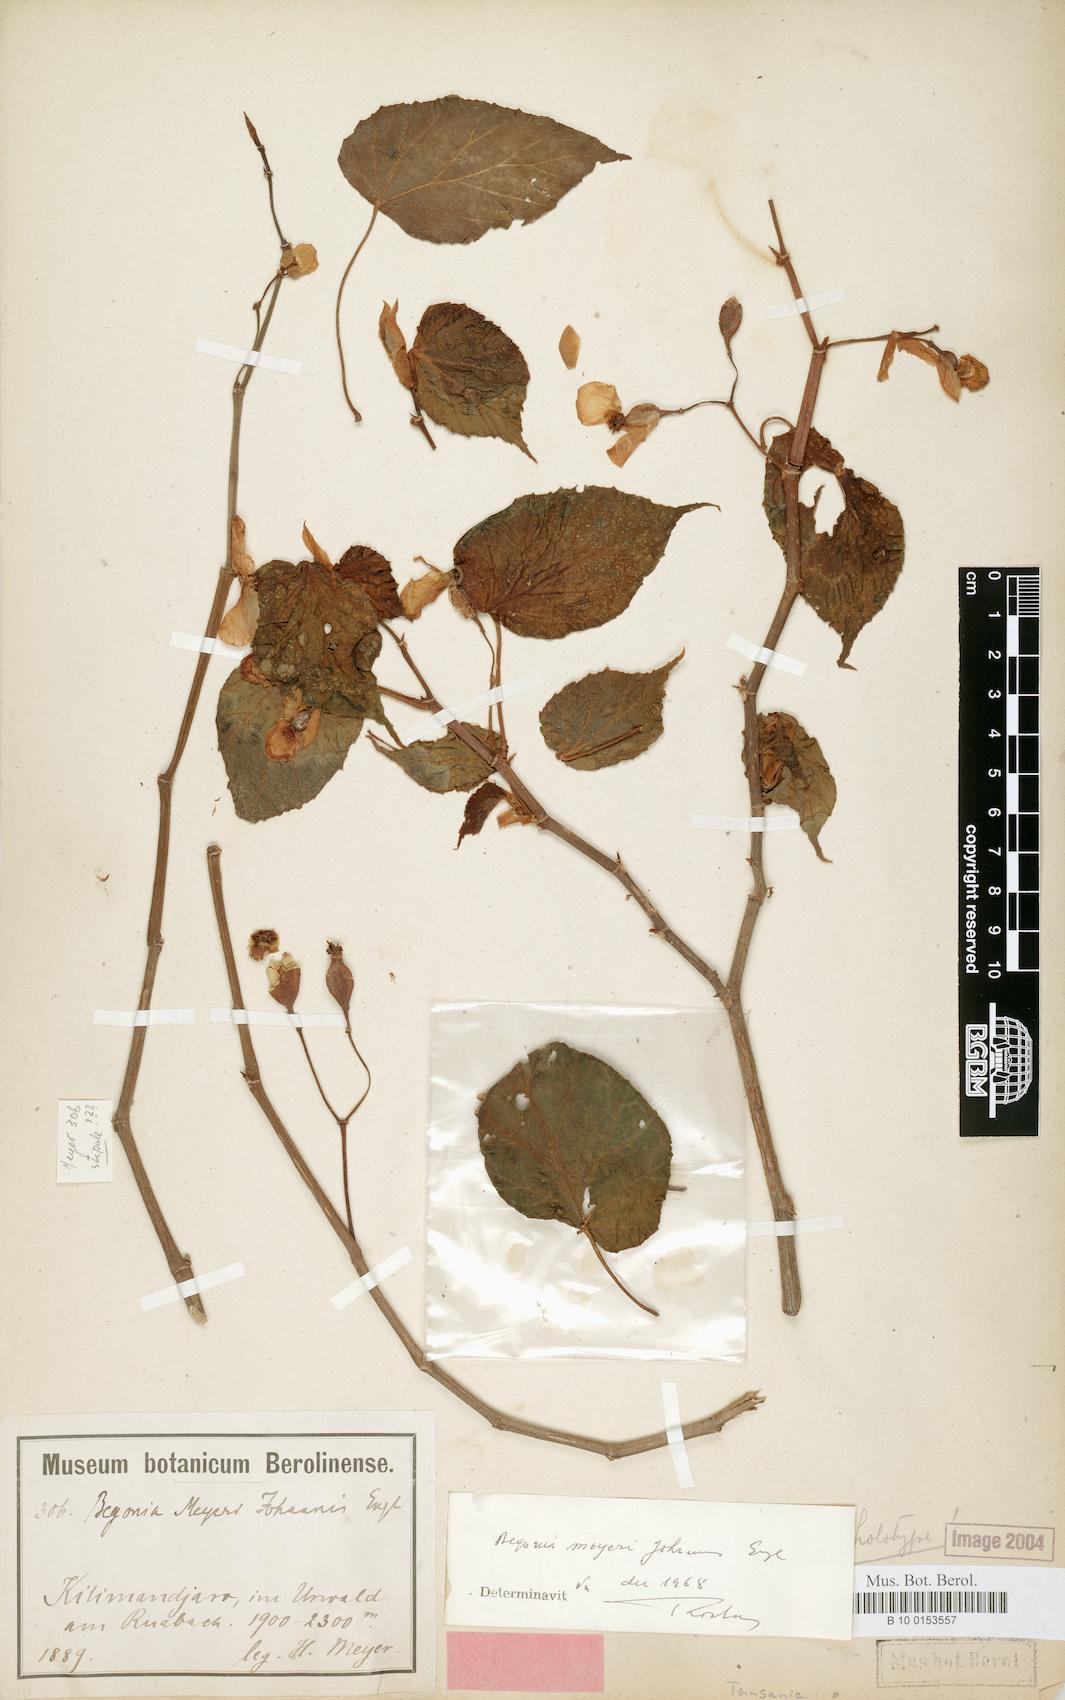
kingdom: Plantae
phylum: Tracheophyta
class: Magnoliopsida
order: Cucurbitales
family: Begoniaceae
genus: Begonia
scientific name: Begonia meyeri-johannis
